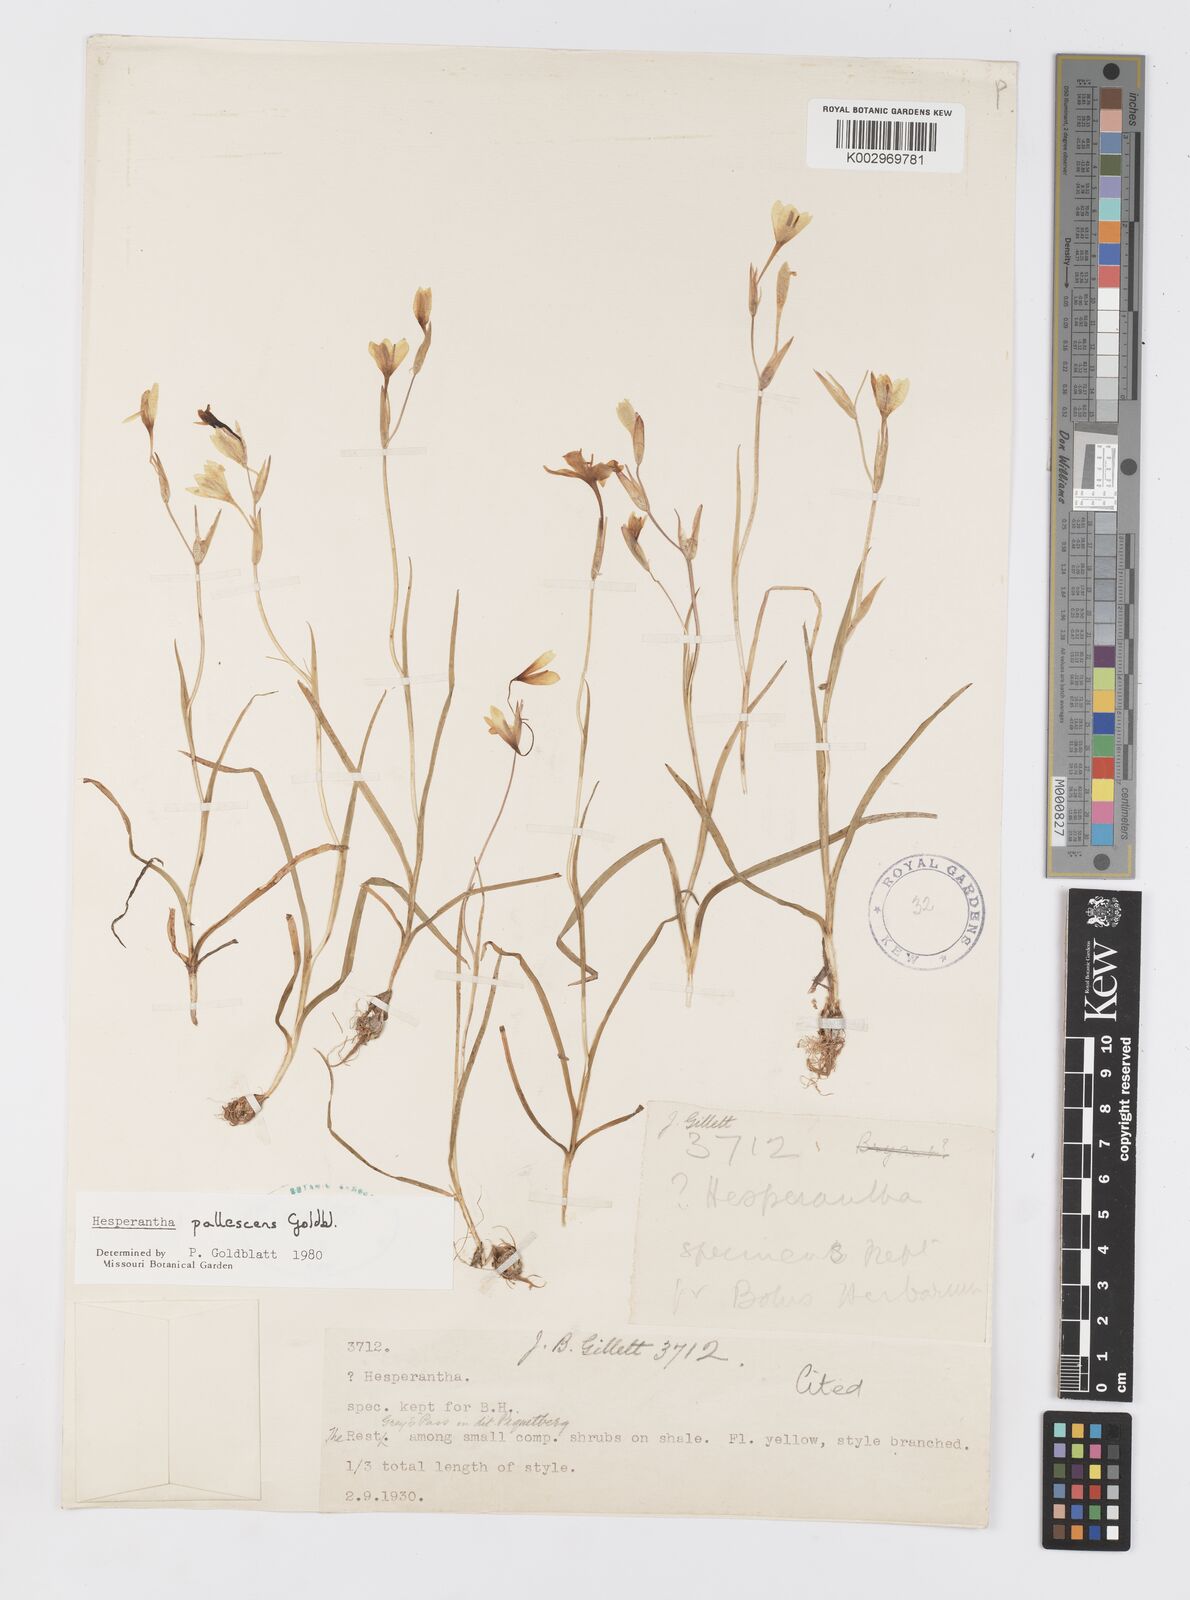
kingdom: Plantae
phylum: Tracheophyta
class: Liliopsida
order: Asparagales
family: Iridaceae
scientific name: Iridaceae
